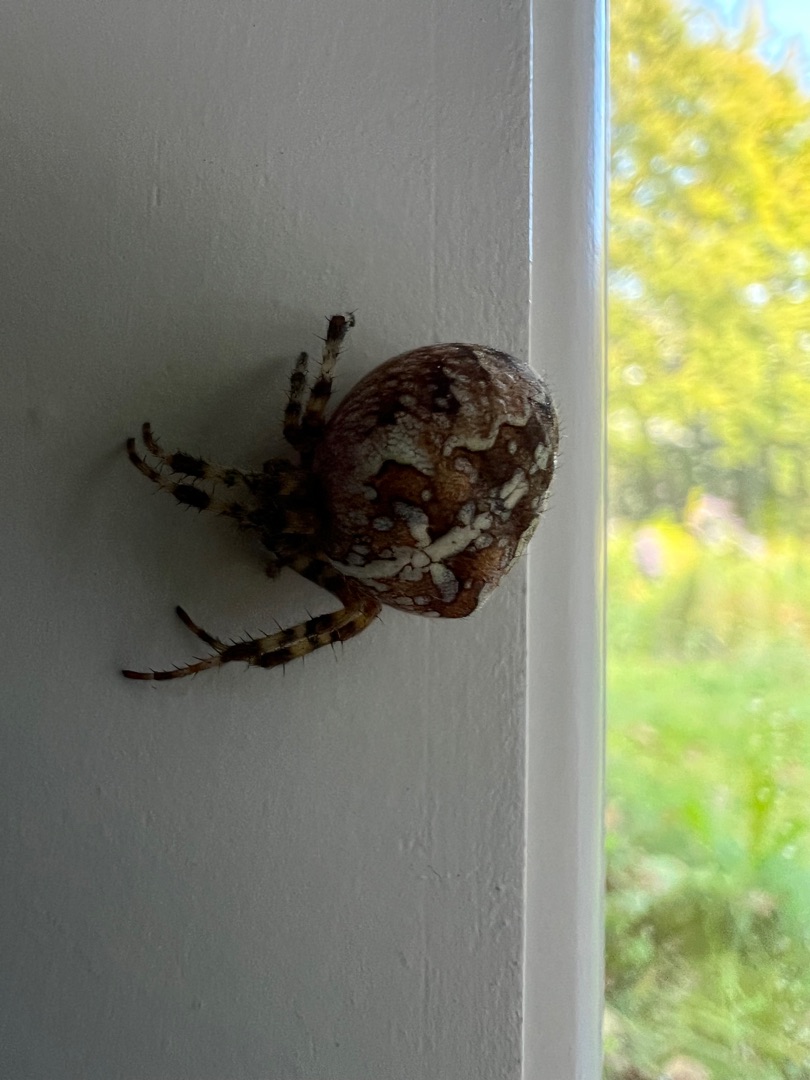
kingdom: Animalia
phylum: Arthropoda
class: Arachnida
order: Araneae
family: Araneidae
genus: Araneus
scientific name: Araneus diadematus
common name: Korsedderkop
